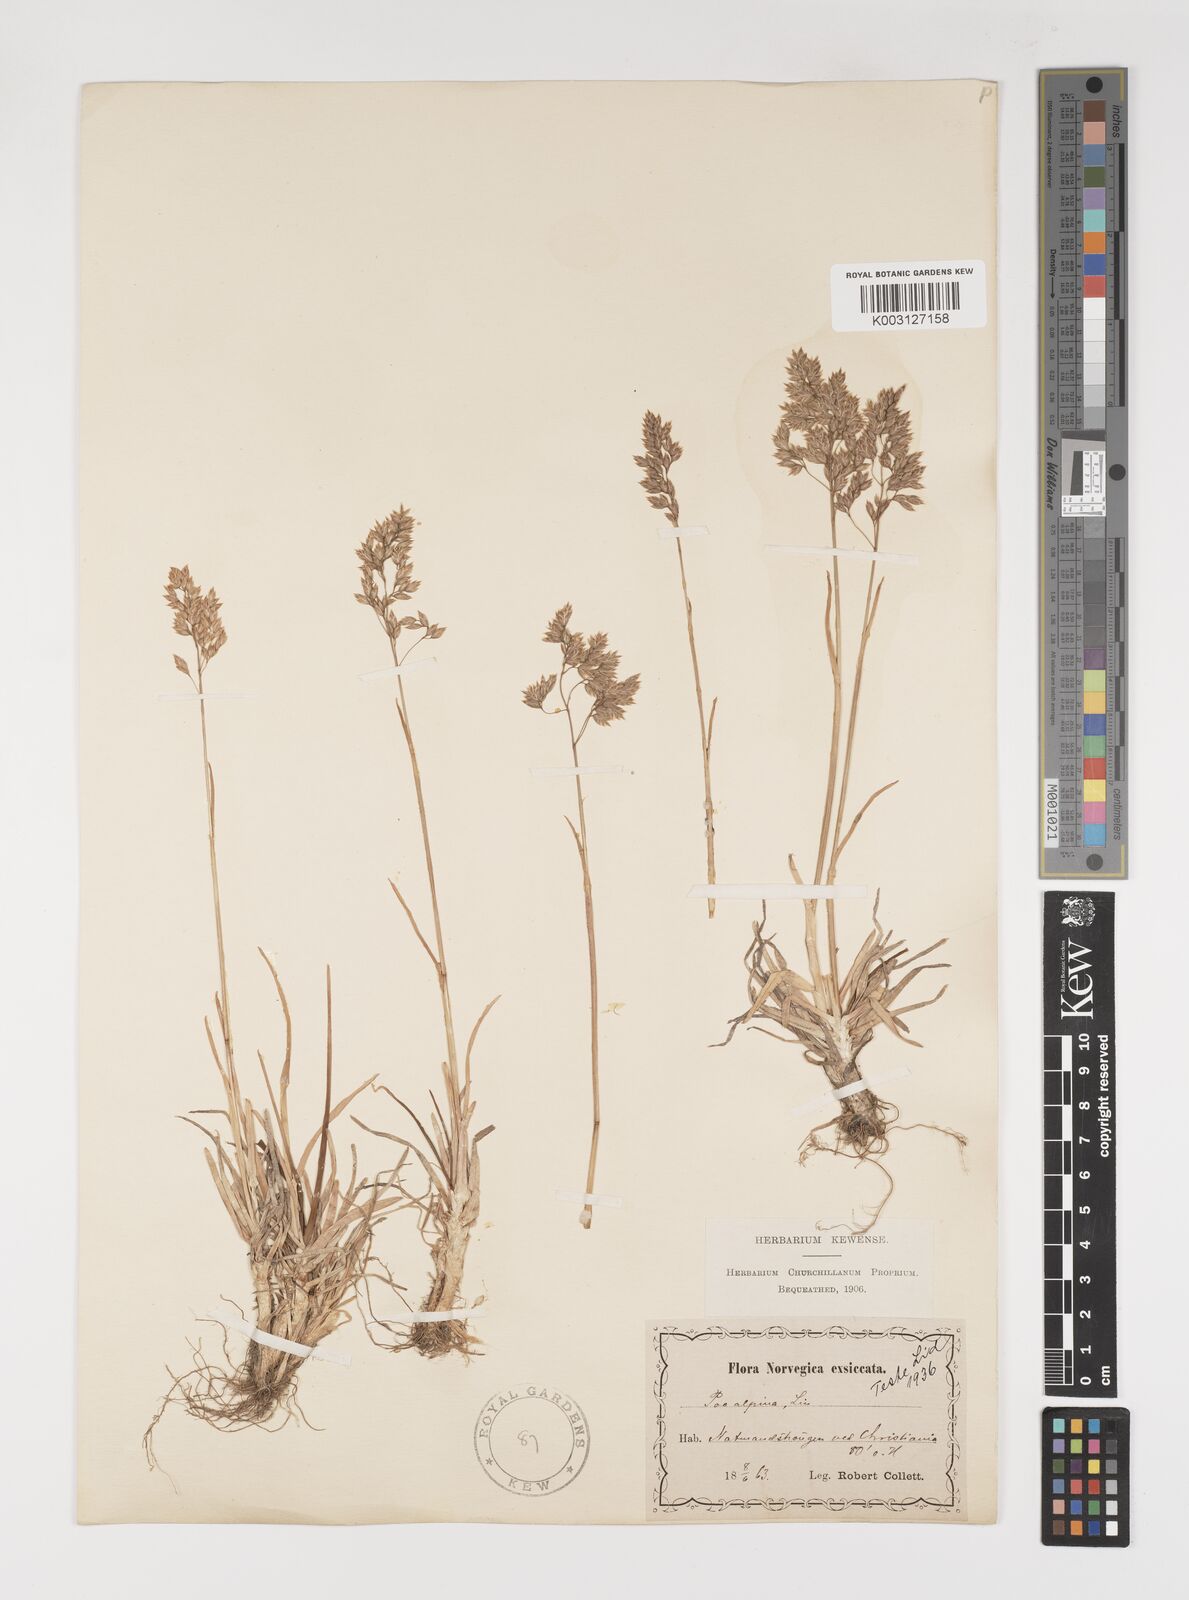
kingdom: Plantae
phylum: Tracheophyta
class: Liliopsida
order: Poales
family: Poaceae
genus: Poa
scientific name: Poa alpina
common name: Alpine bluegrass
